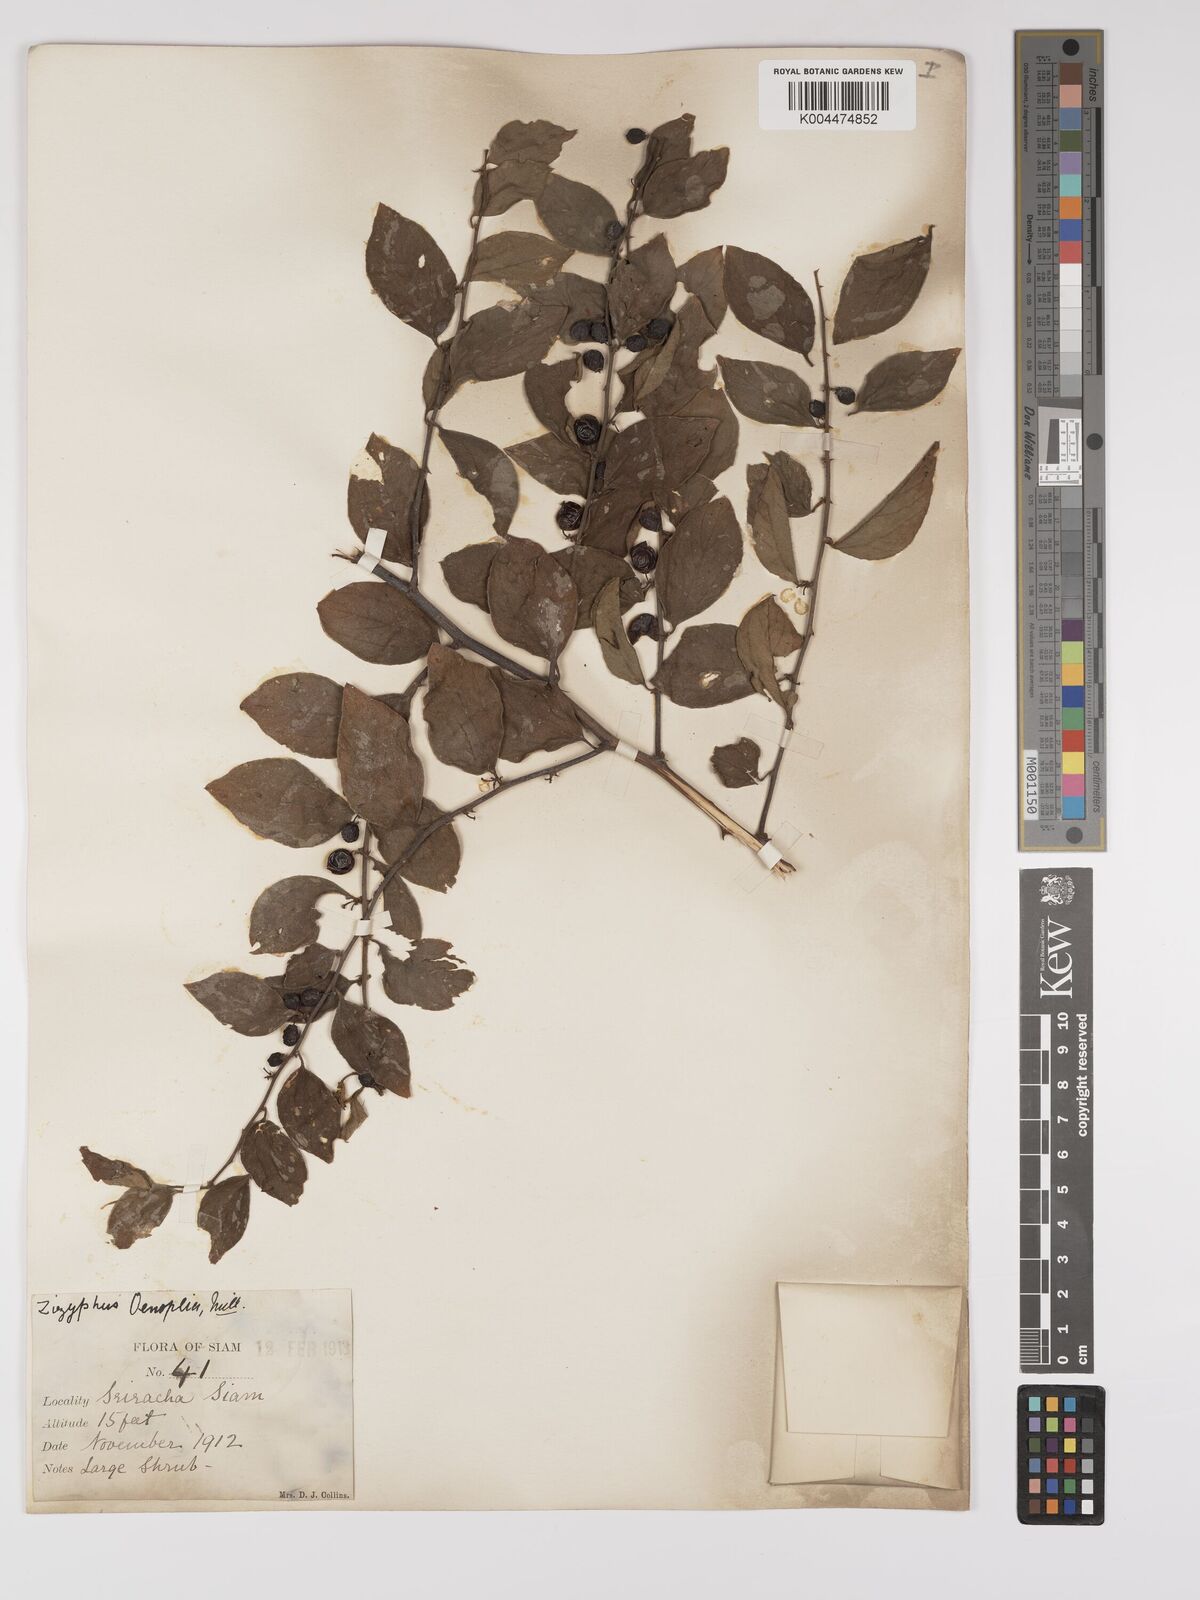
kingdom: Plantae
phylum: Tracheophyta
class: Magnoliopsida
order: Rosales
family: Rhamnaceae
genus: Ziziphus
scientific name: Ziziphus oenopolia
